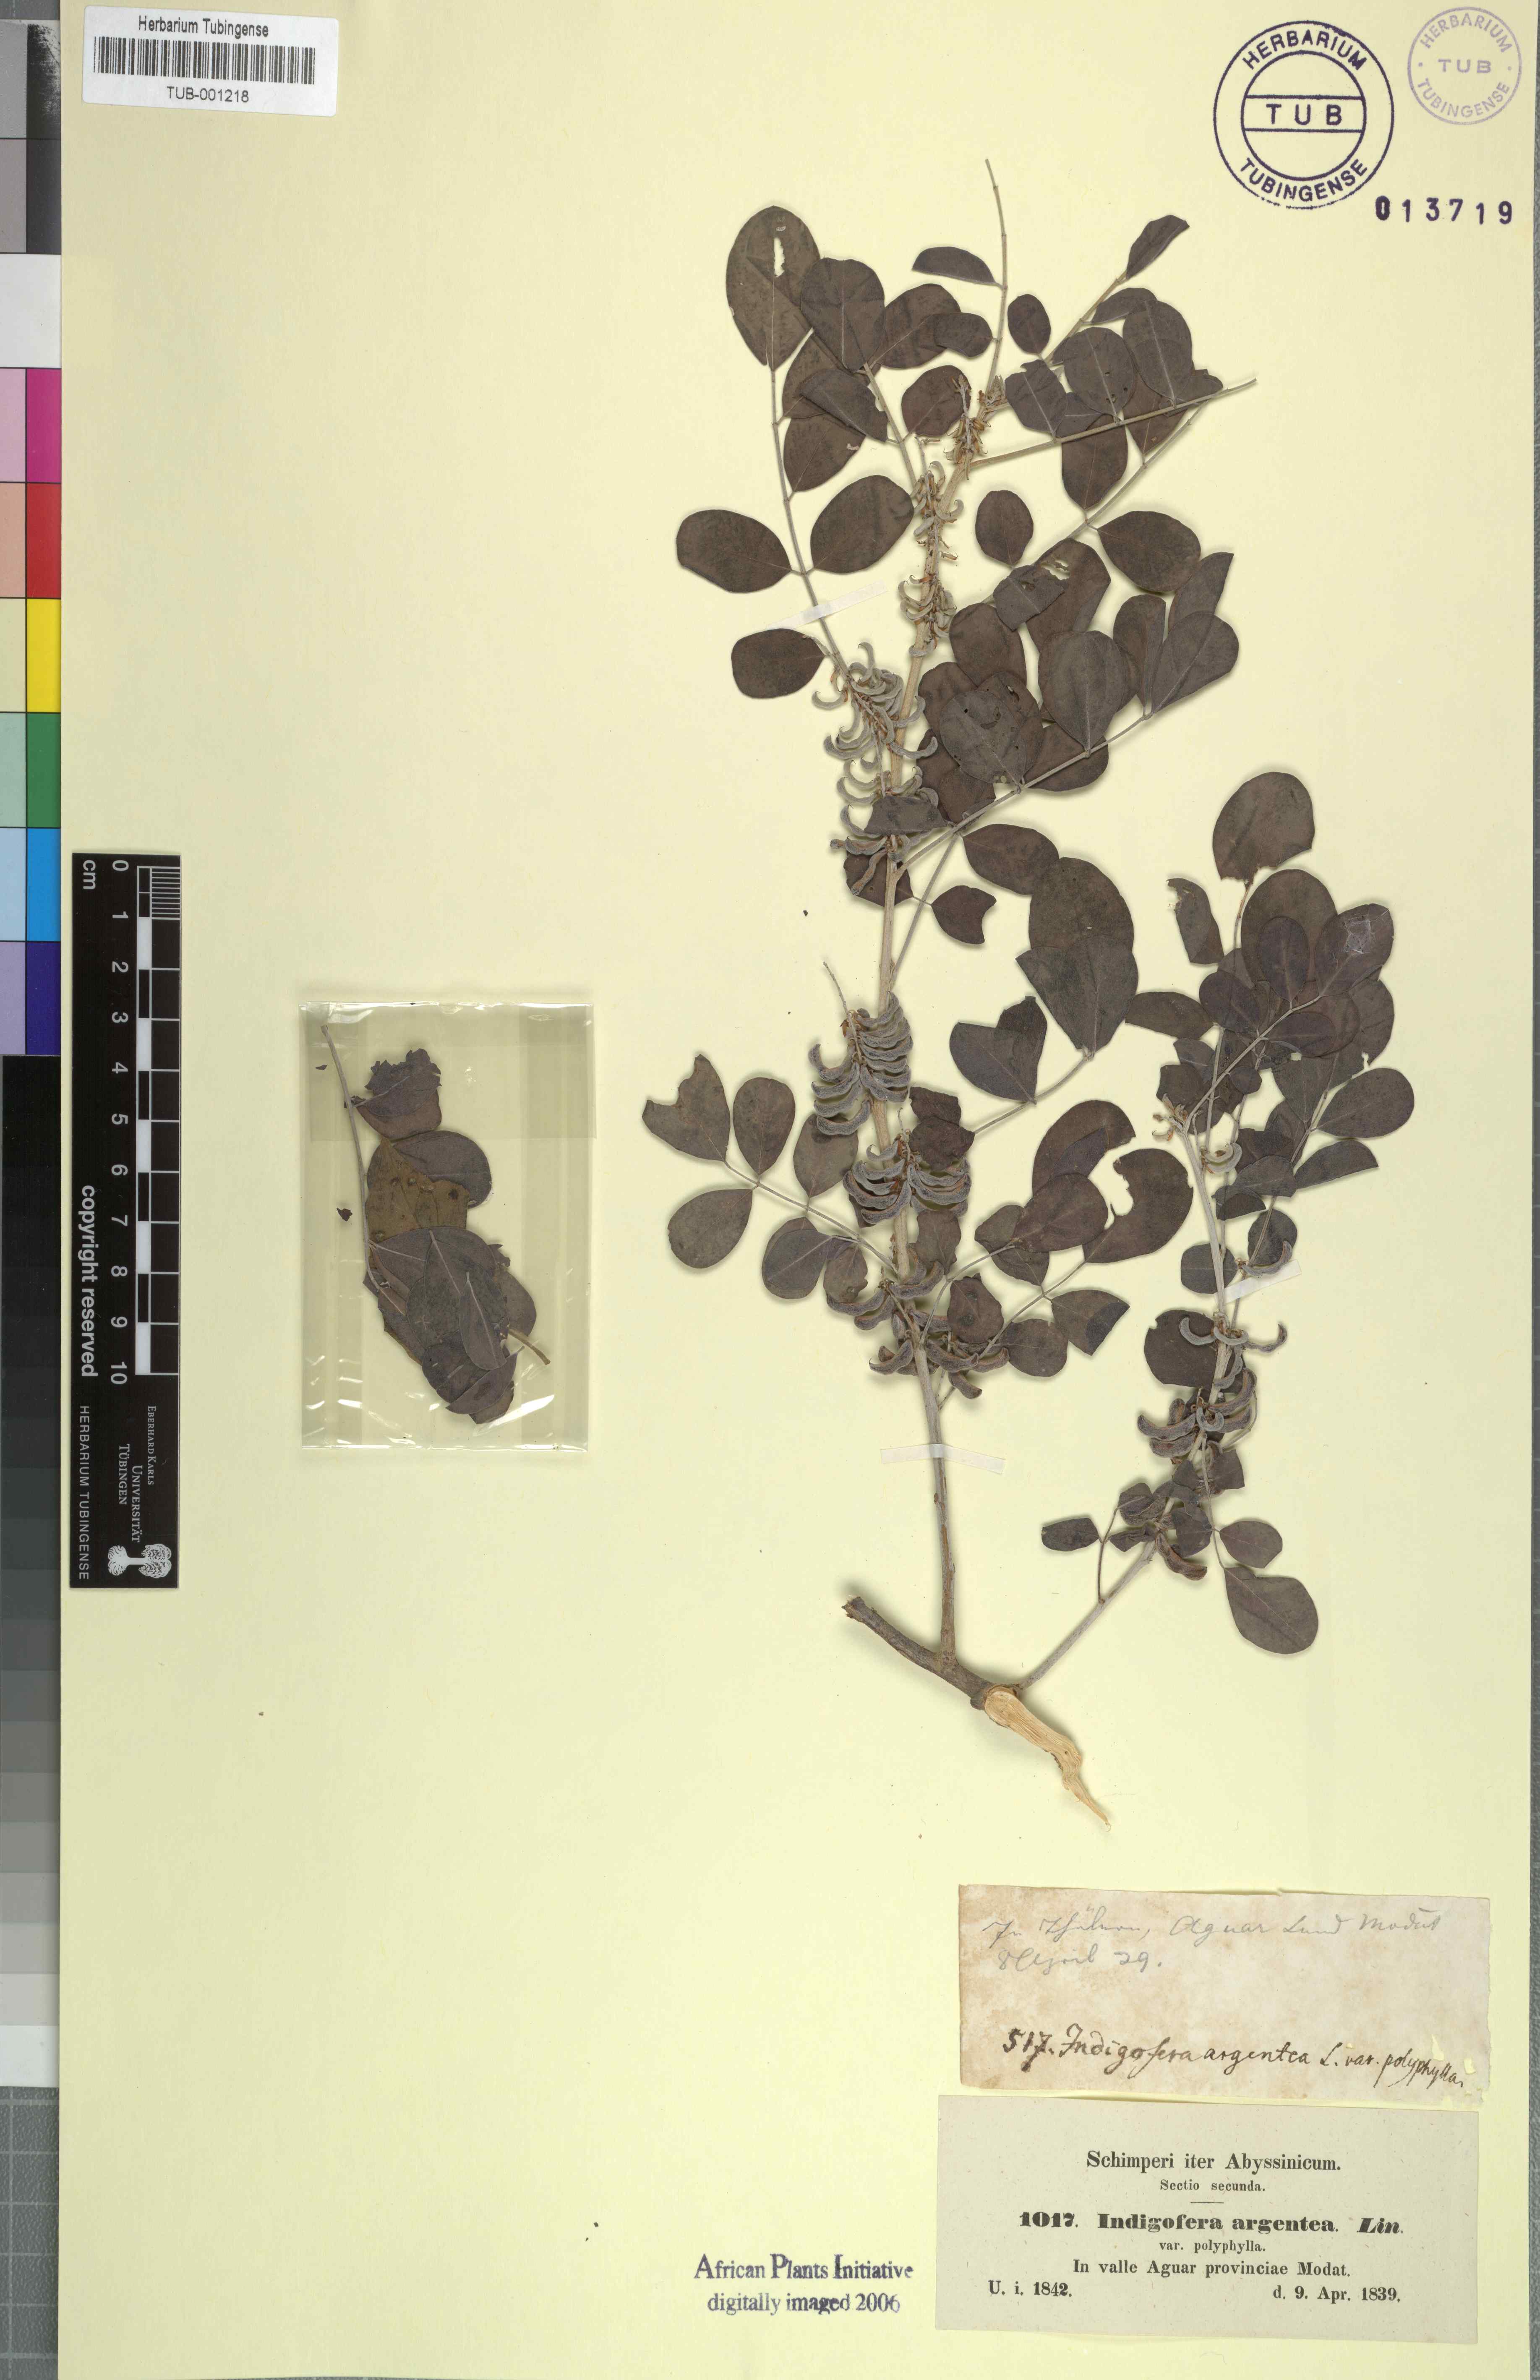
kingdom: Plantae
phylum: Tracheophyta
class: Magnoliopsida
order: Fabales
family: Fabaceae
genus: Indigofera
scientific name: Indigofera argentea
